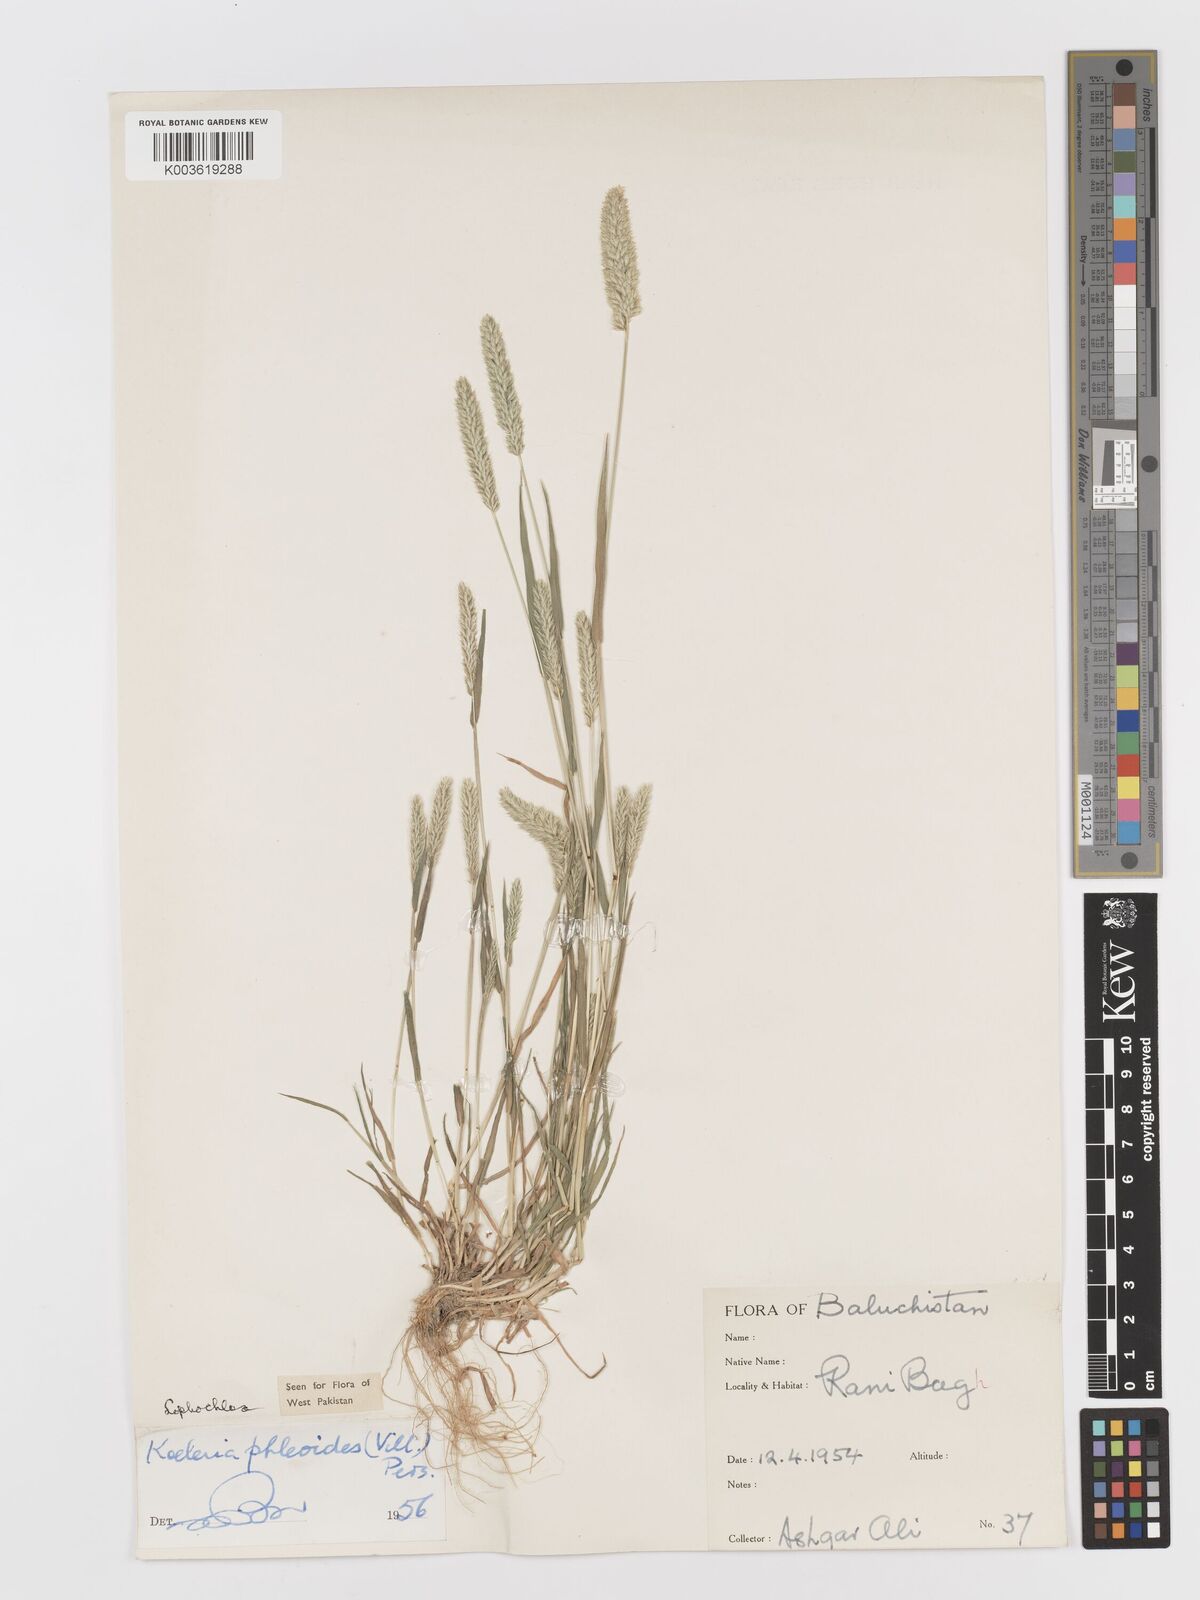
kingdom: Plantae
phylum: Tracheophyta
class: Liliopsida
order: Poales
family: Poaceae
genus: Rostraria
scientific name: Rostraria cristata
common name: Mediterranean hair-grass
